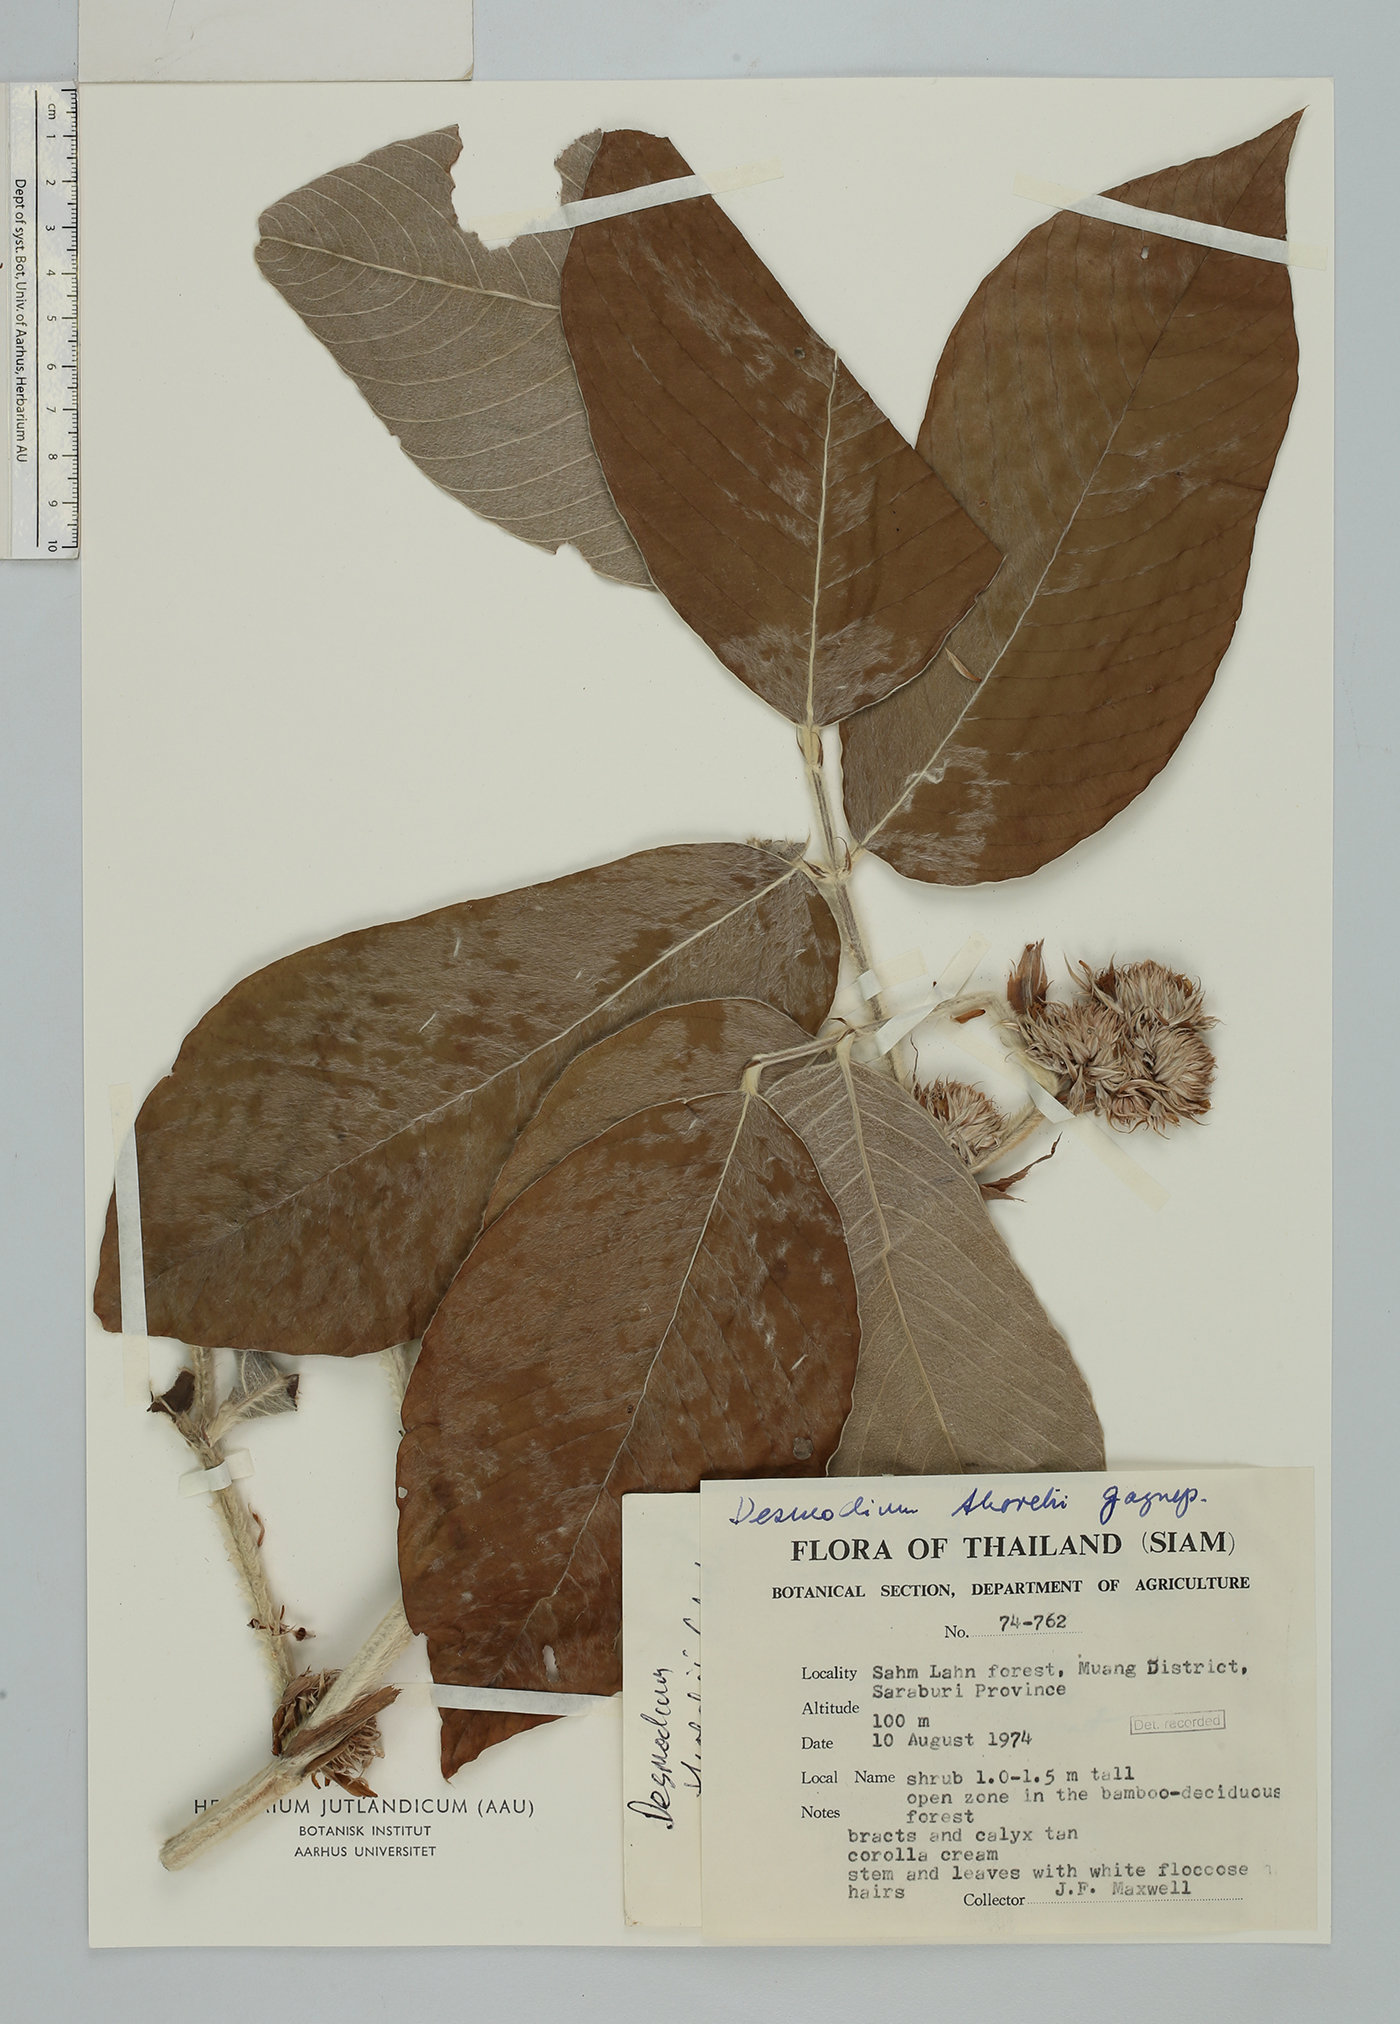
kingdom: Plantae
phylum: Tracheophyta
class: Magnoliopsida
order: Fabales
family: Fabaceae
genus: Dendrolobium
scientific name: Dendrolobium thorelii
